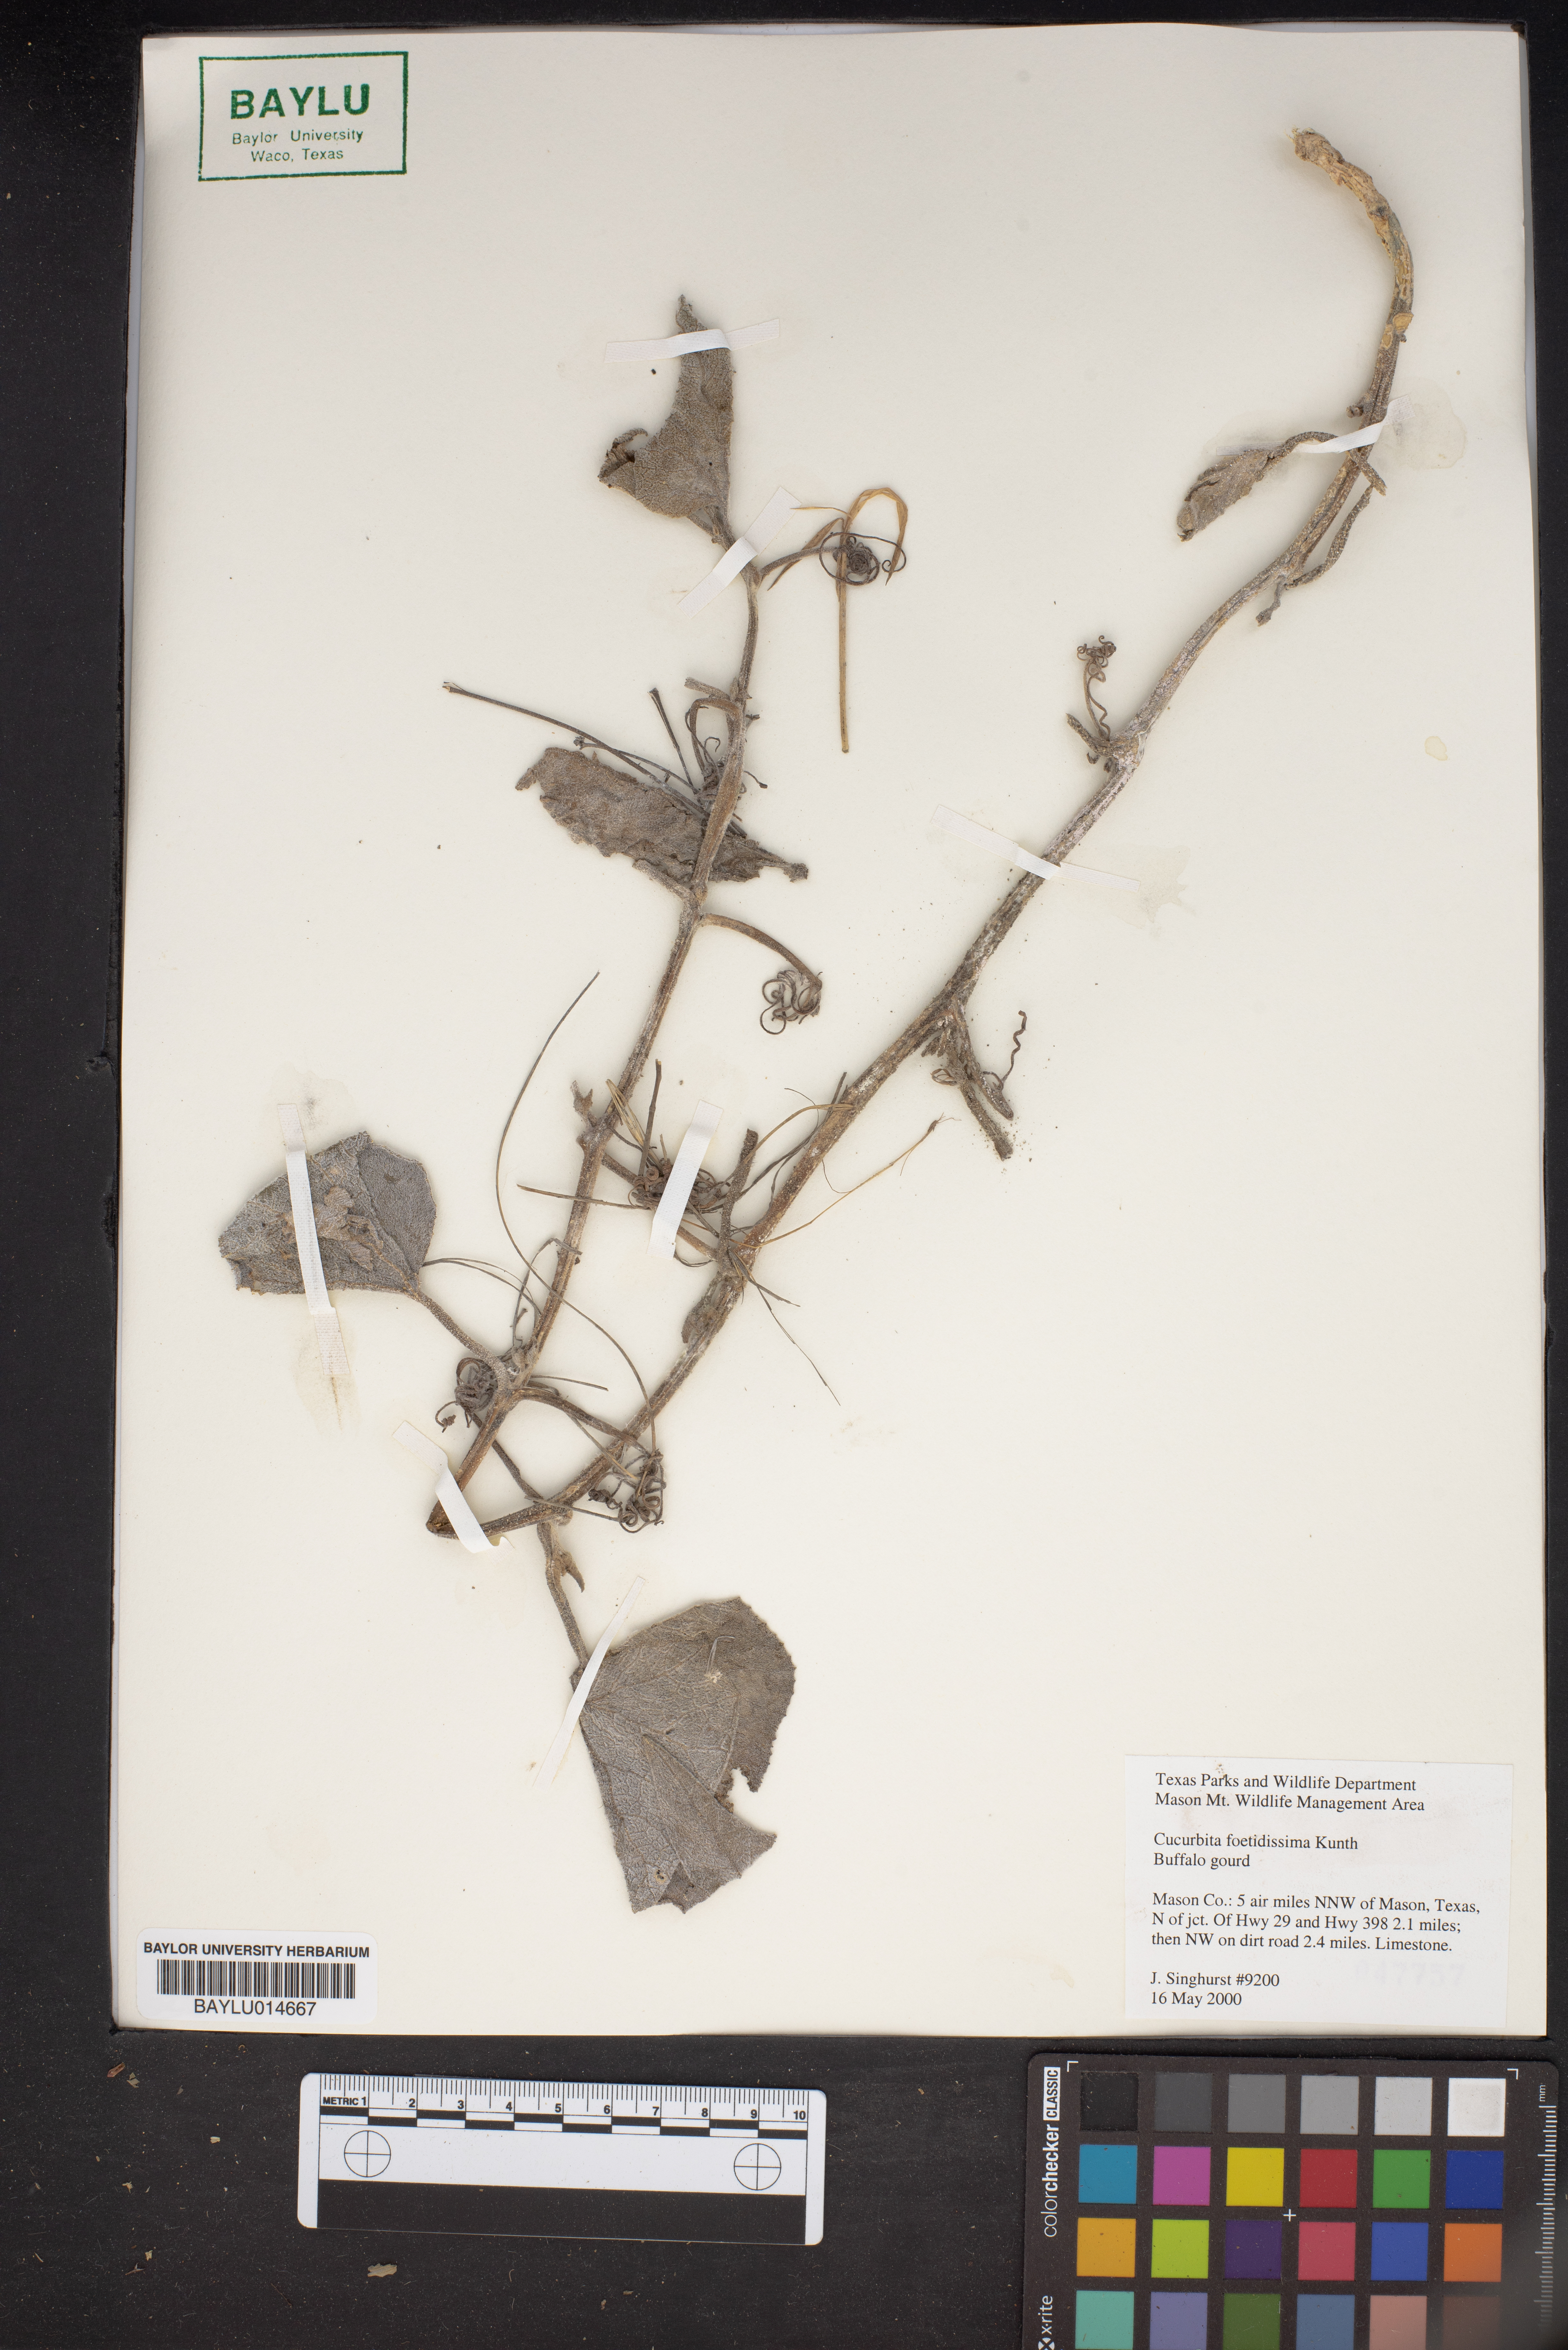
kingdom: Plantae
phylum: Tracheophyta
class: Magnoliopsida
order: Cucurbitales
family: Cucurbitaceae
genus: Cucurbita
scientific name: Cucurbita foetidissima
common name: Buffalo gourd
